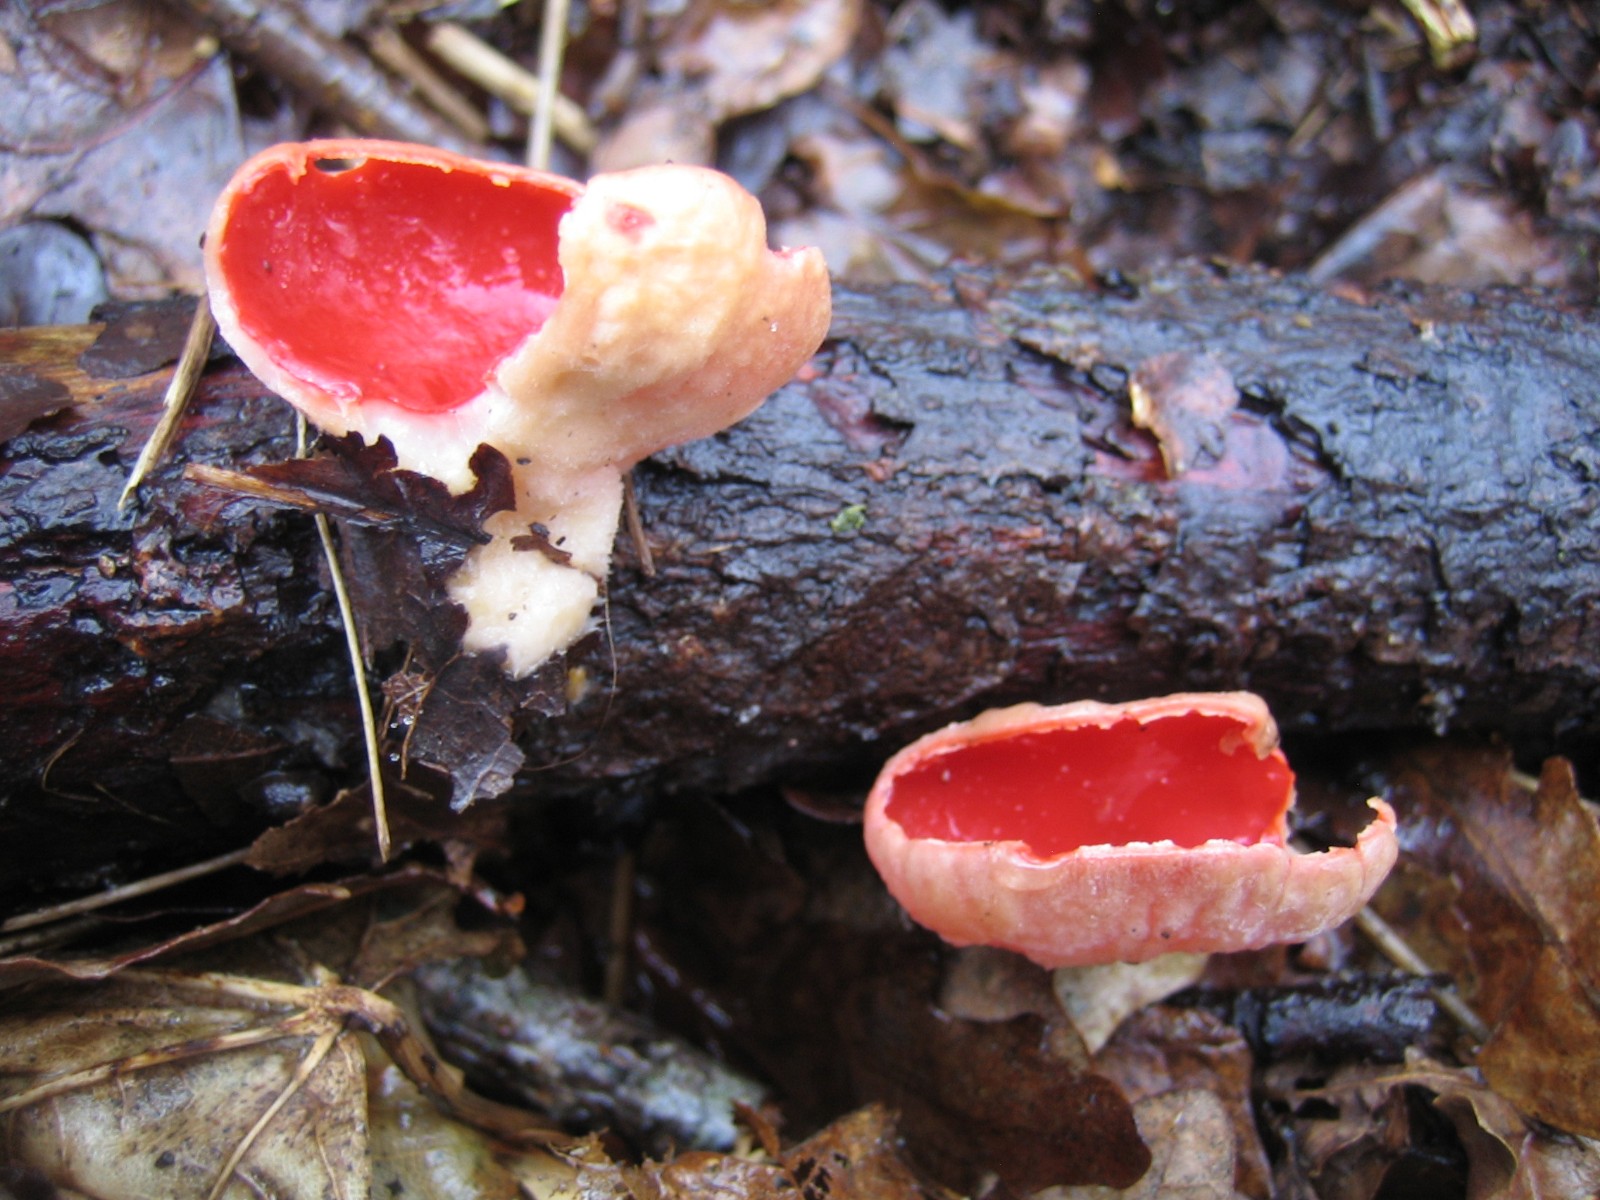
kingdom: Fungi
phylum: Ascomycota
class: Pezizomycetes
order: Pezizales
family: Sarcoscyphaceae
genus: Sarcoscypha
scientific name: Sarcoscypha austriaca
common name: krølhåret pragtbæger
